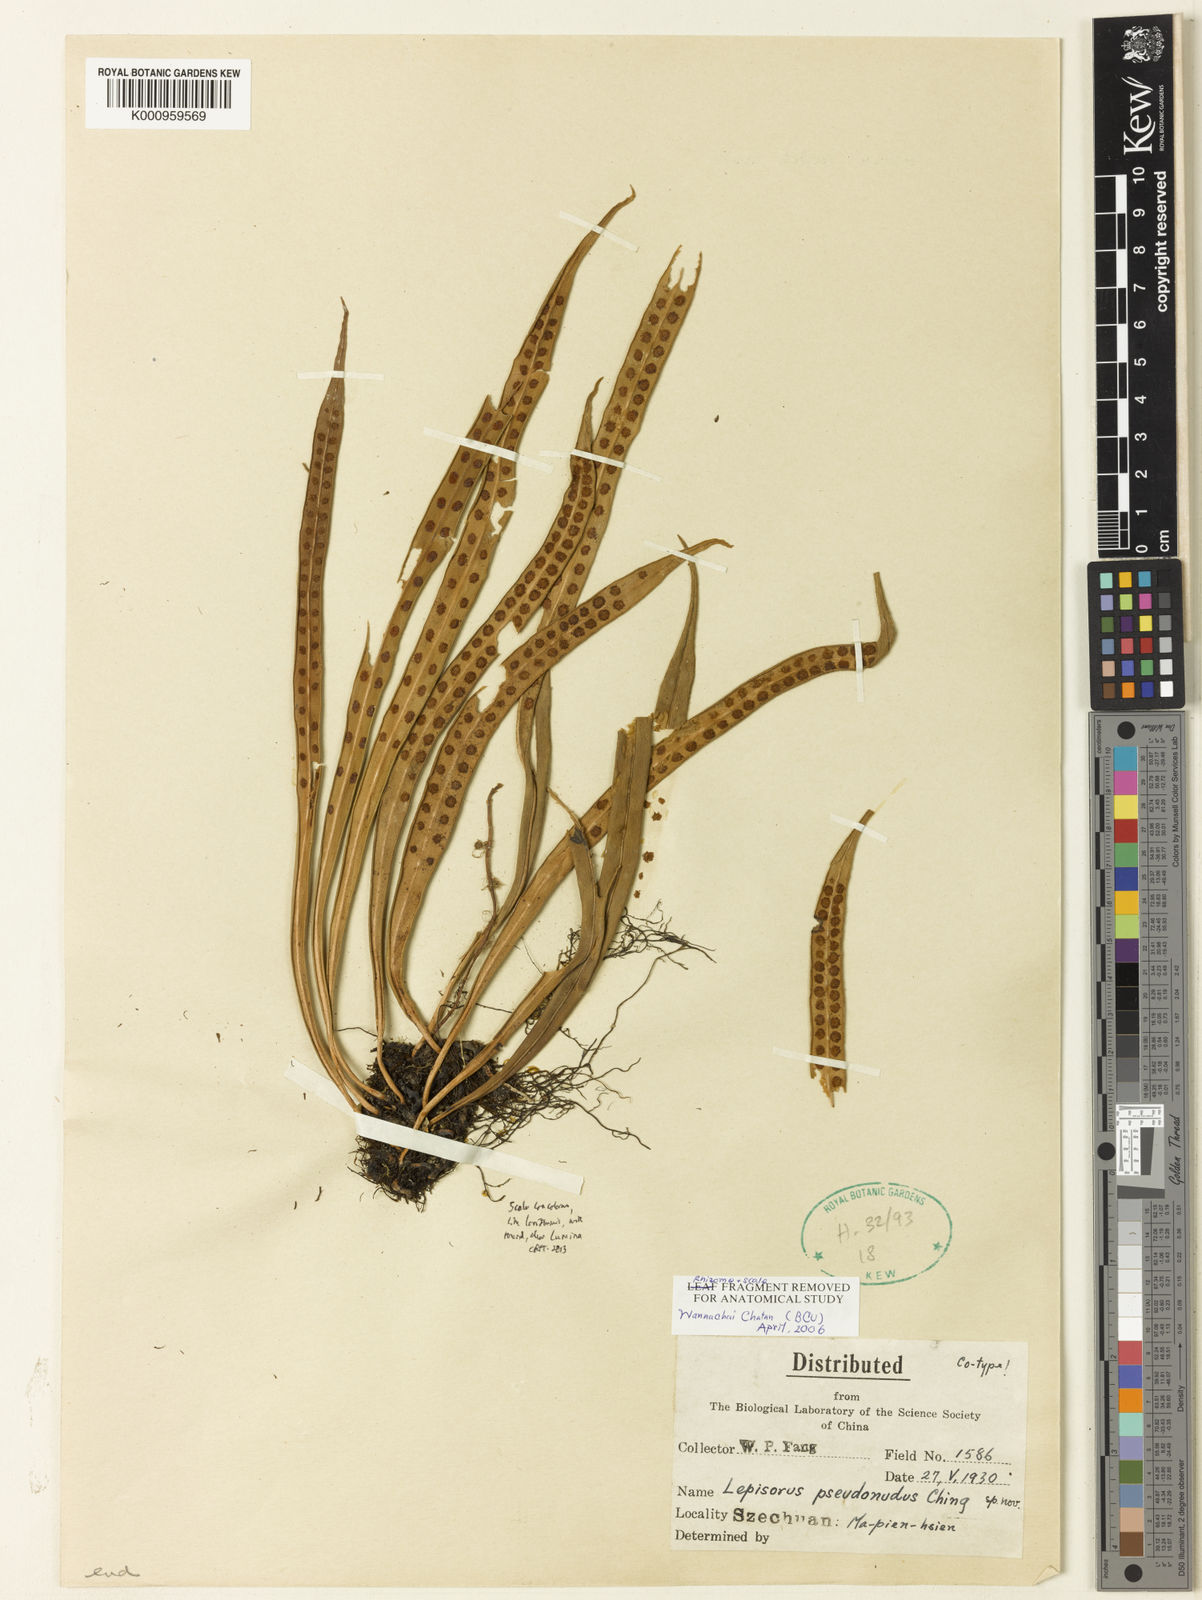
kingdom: Plantae
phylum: Tracheophyta
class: Polypodiopsida
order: Polypodiales
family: Polypodiaceae
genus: Lepisorus
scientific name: Lepisorus pseudonudus
